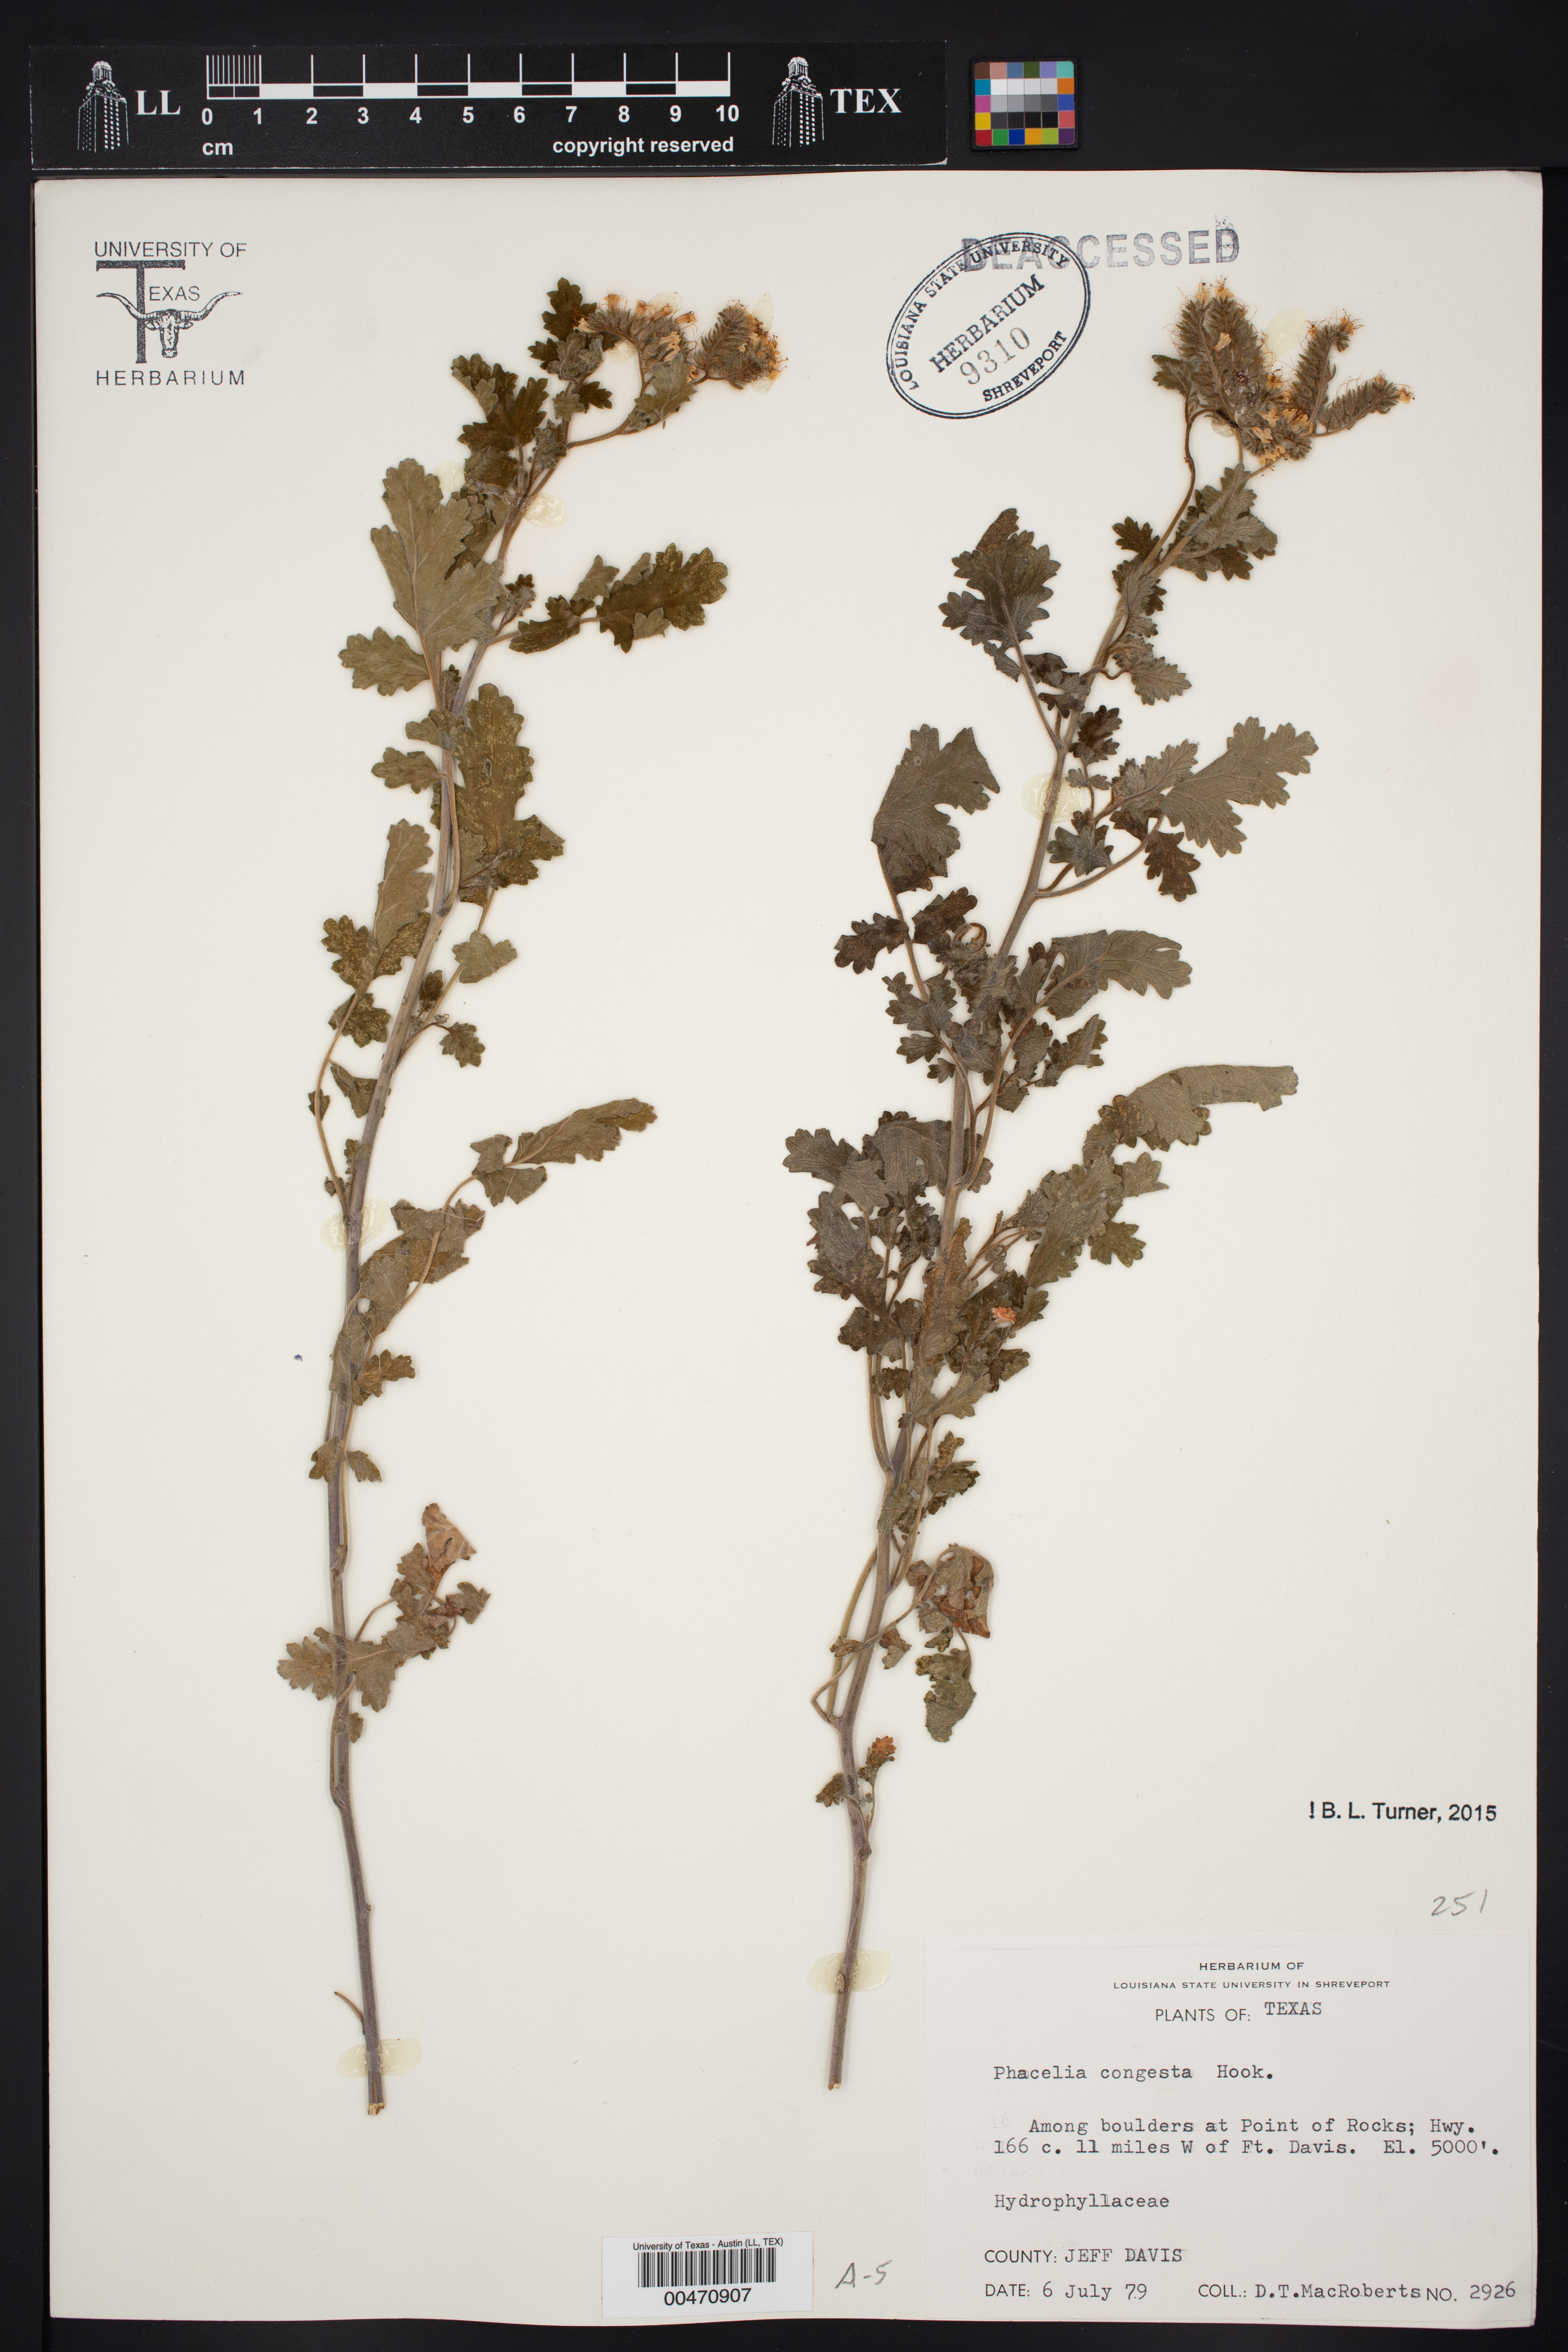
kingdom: Plantae
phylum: Tracheophyta
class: Magnoliopsida
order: Boraginales
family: Hydrophyllaceae
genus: Phacelia
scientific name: Phacelia congesta
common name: Blue curls
